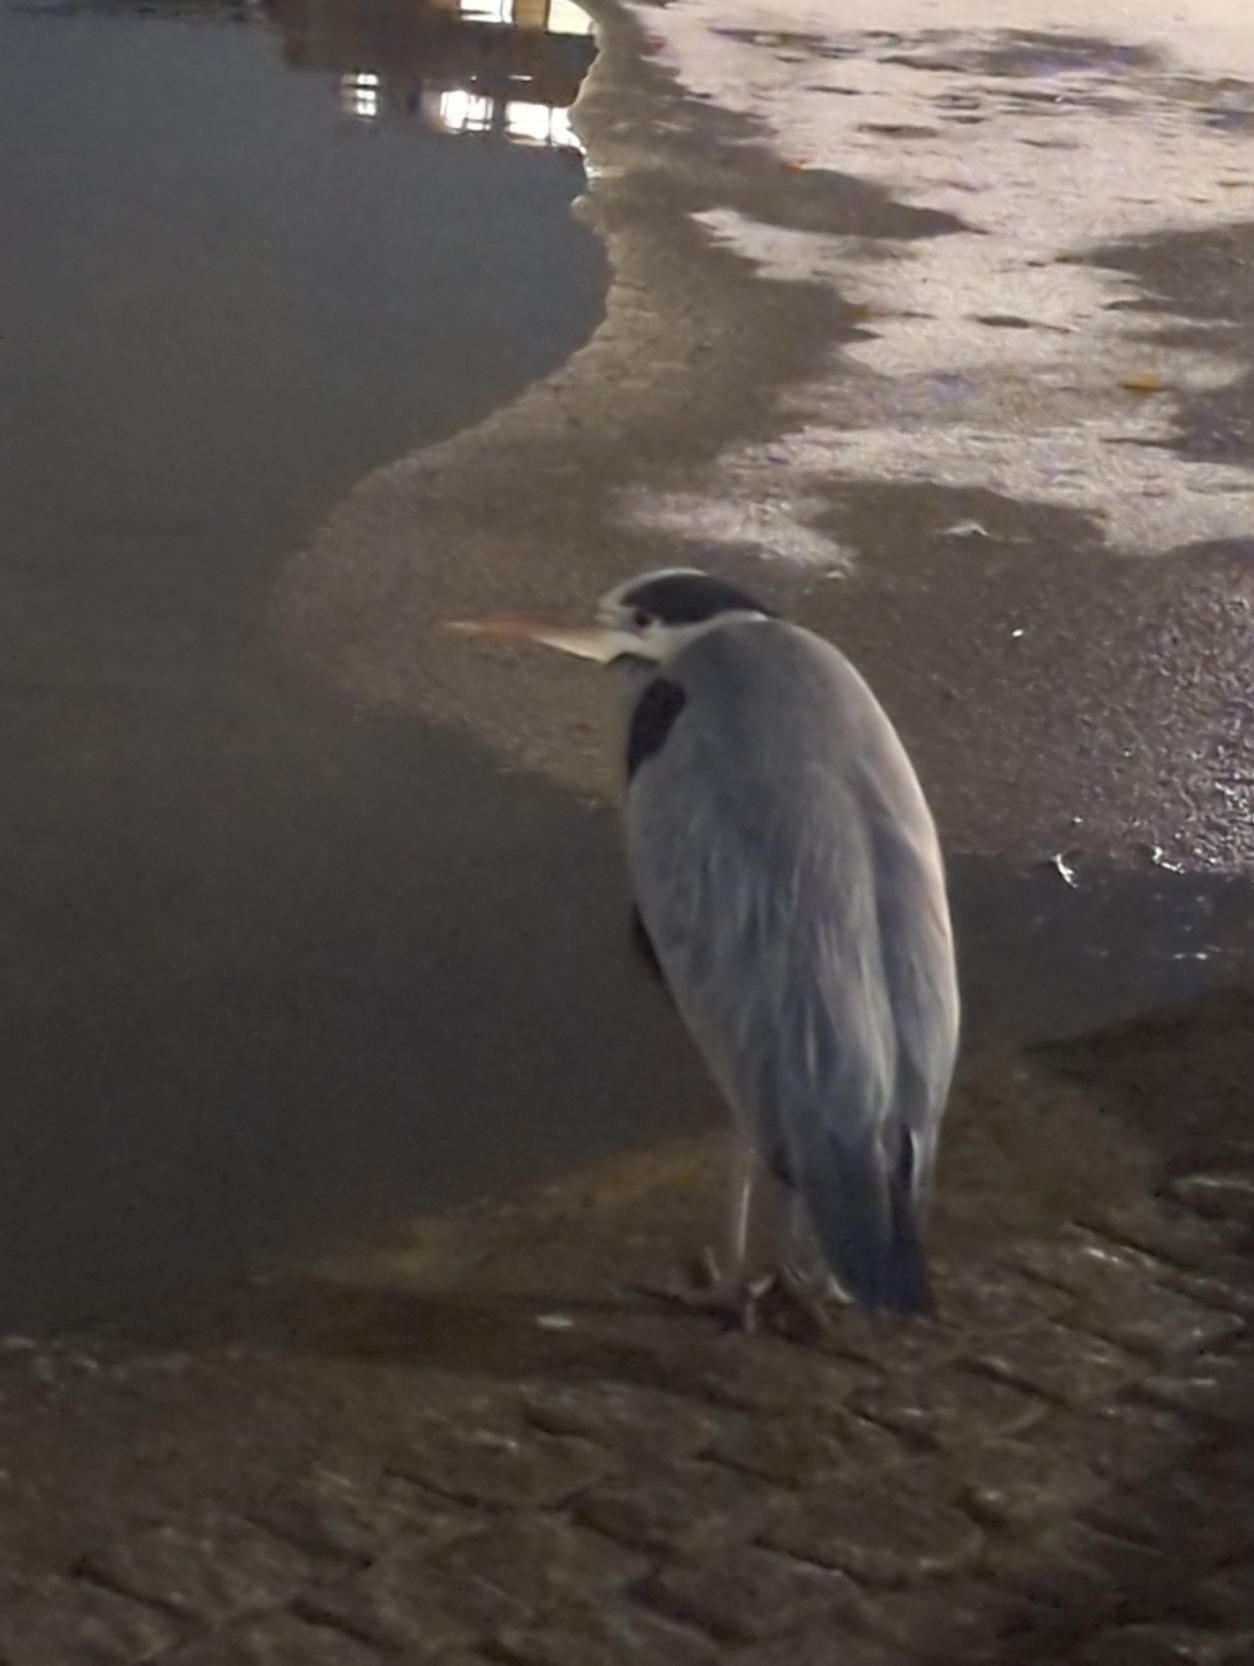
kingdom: Animalia
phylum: Chordata
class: Aves
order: Pelecaniformes
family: Ardeidae
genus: Ardea
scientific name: Ardea cinerea
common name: Fiskehejre
